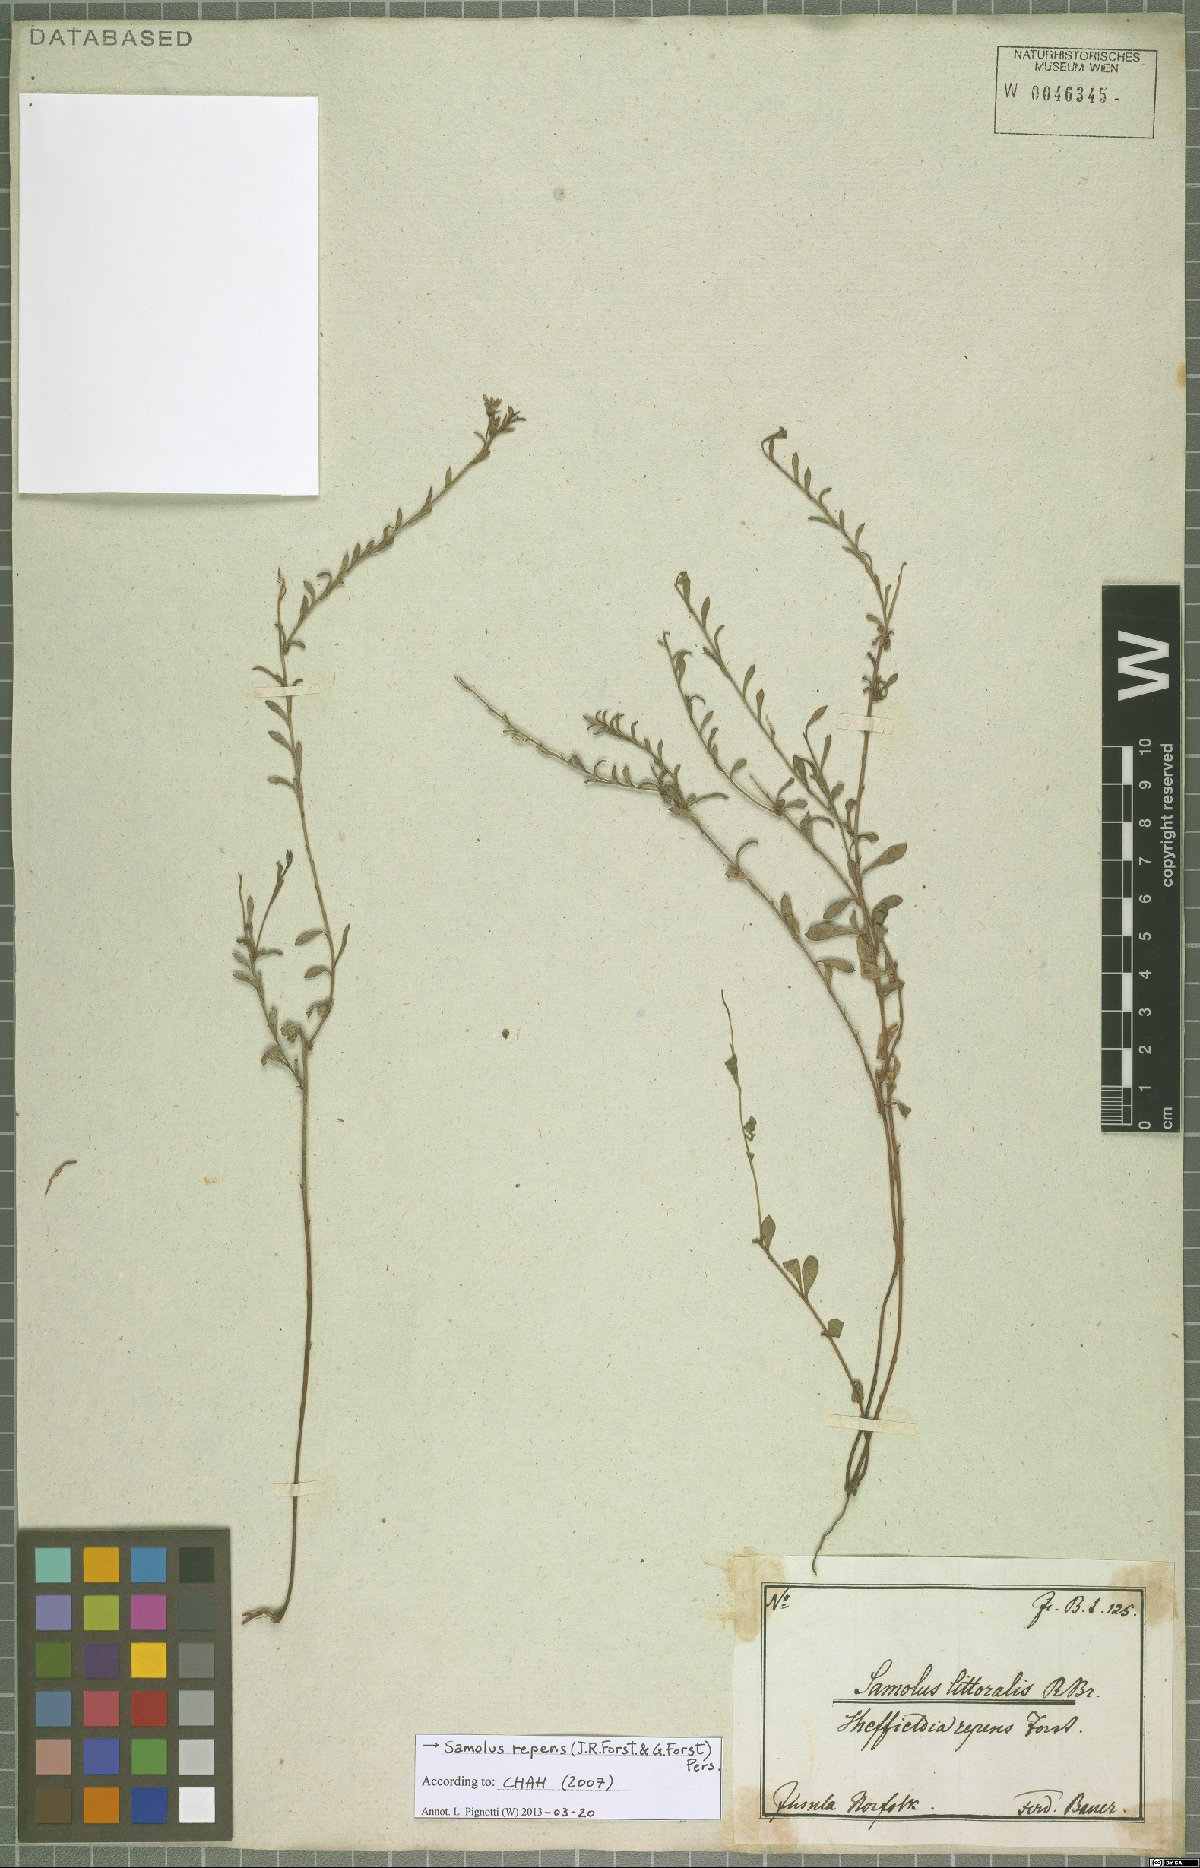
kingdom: Plantae
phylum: Tracheophyta
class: Magnoliopsida
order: Ericales
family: Primulaceae
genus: Samolus
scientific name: Samolus repens
